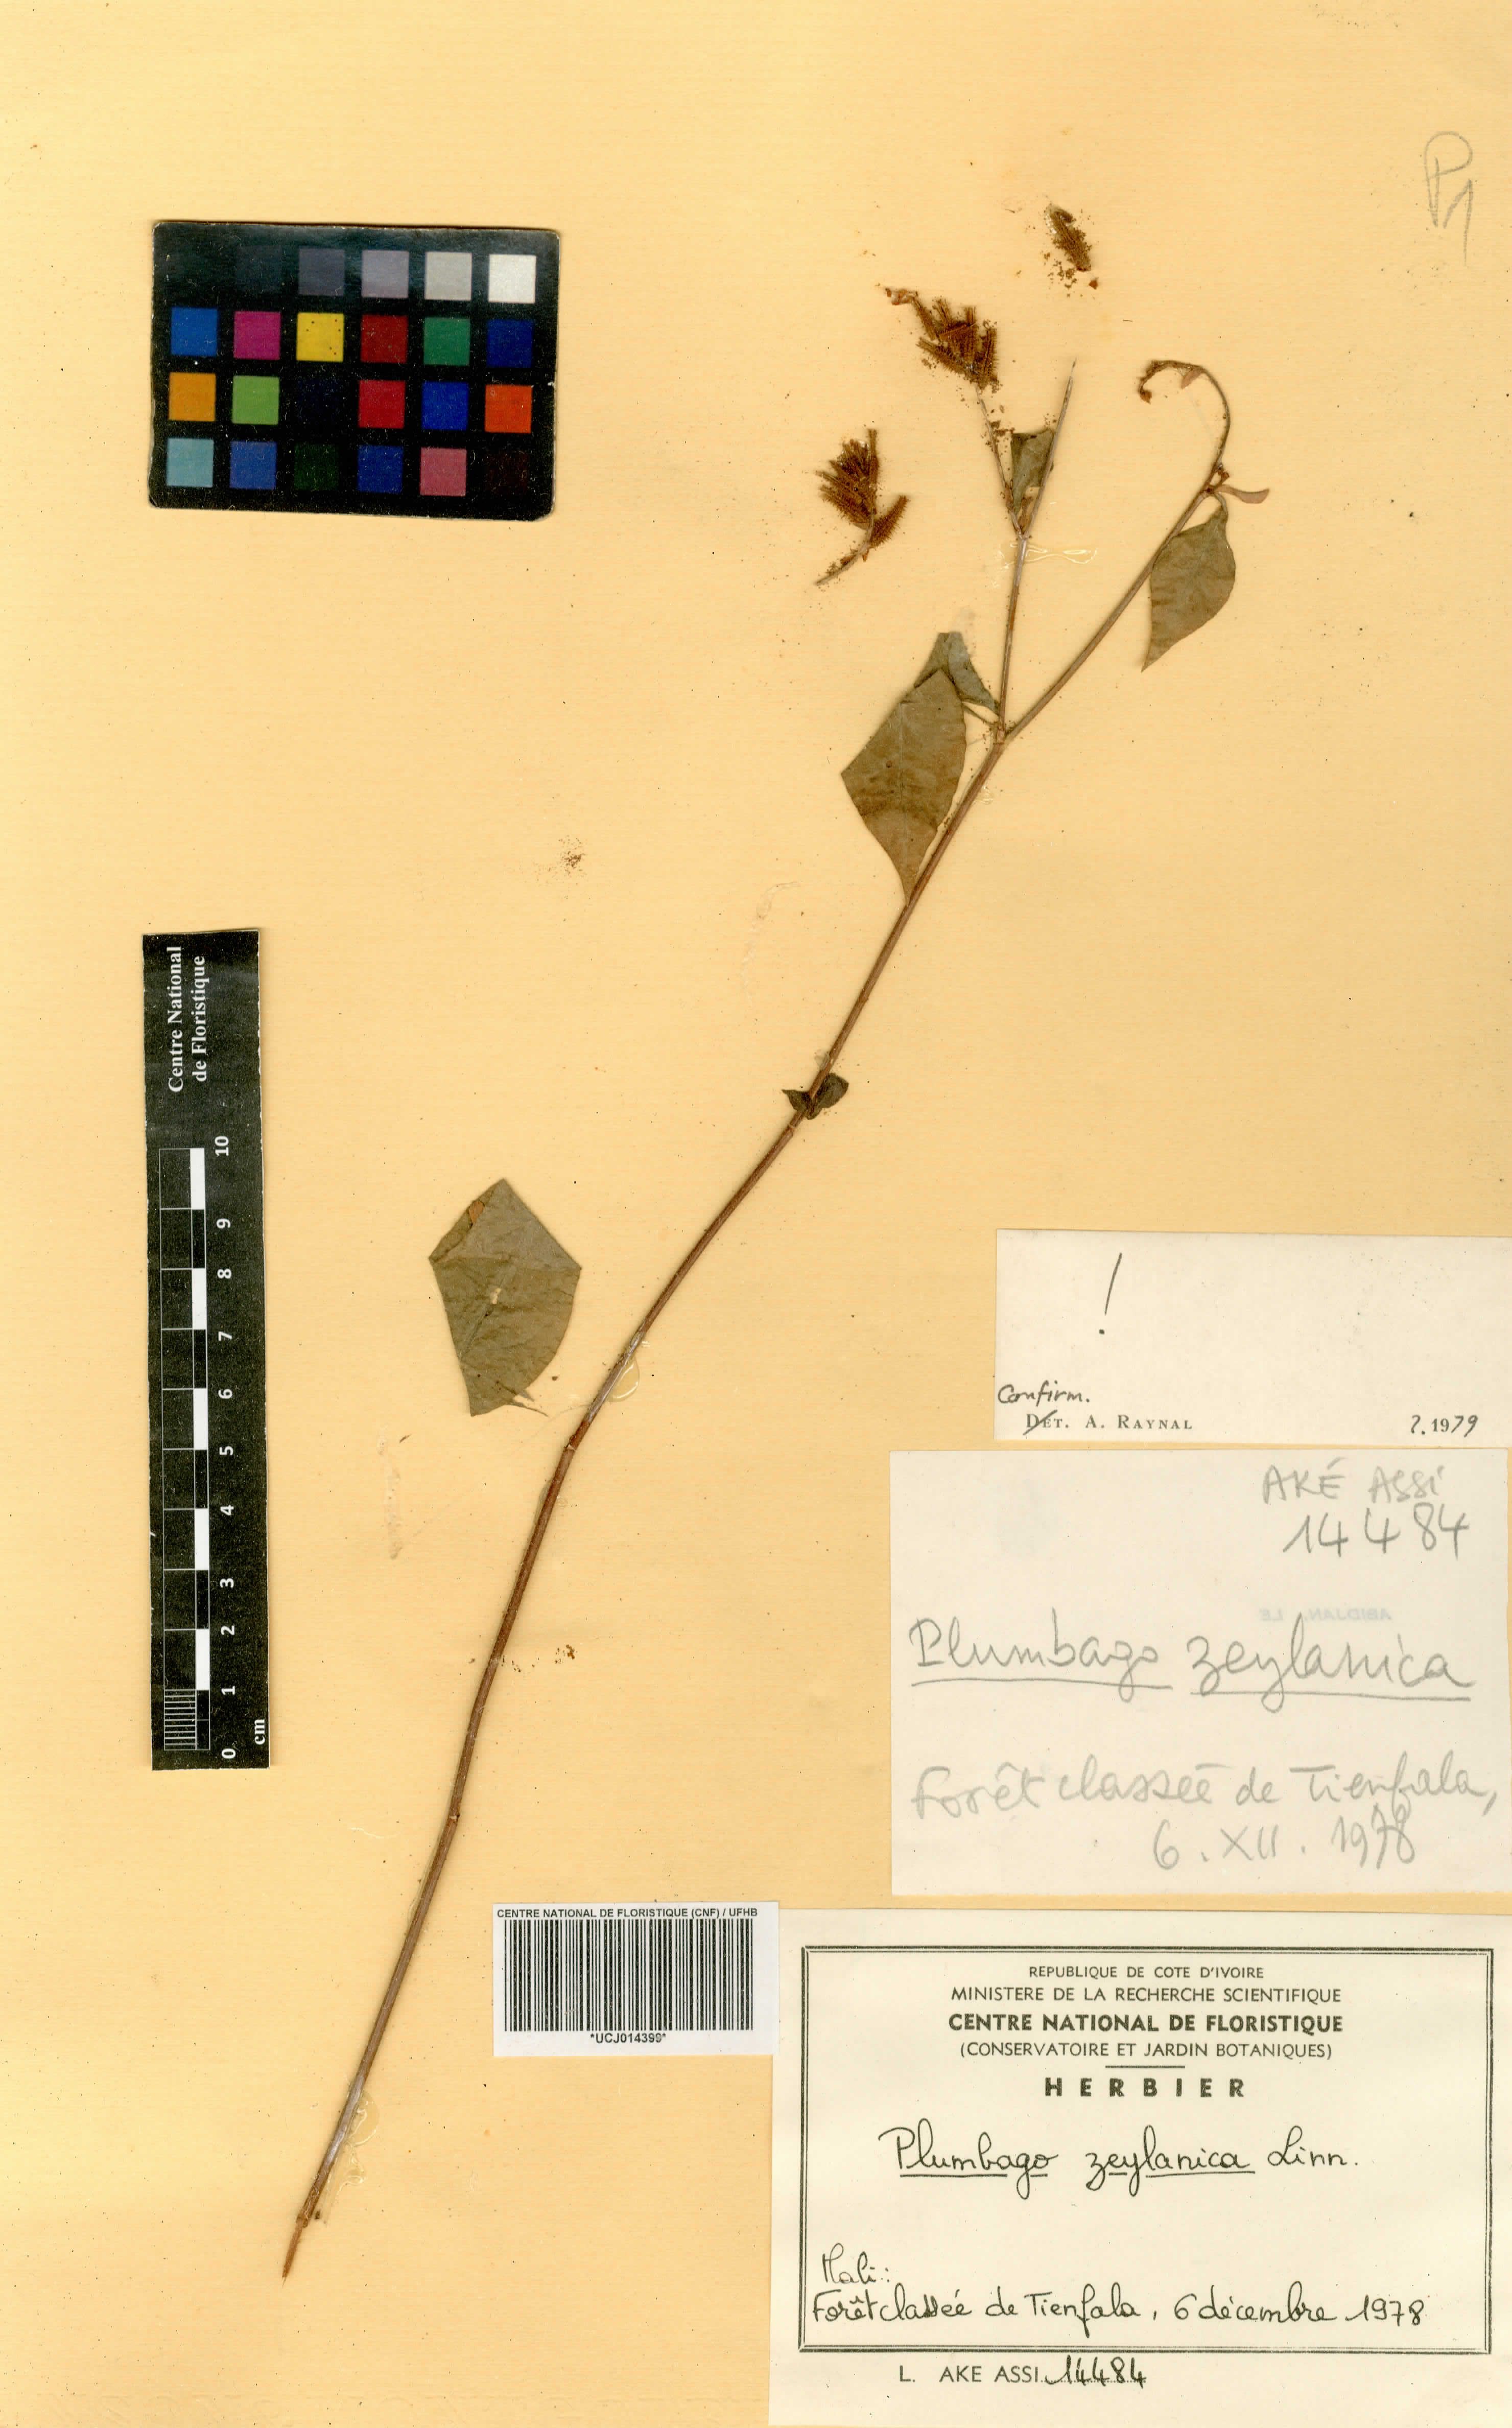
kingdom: Plantae
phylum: Tracheophyta
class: Magnoliopsida
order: Caryophyllales
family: Plumbaginaceae
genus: Plumbago
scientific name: Plumbago zeylanica
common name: Doctorbush
